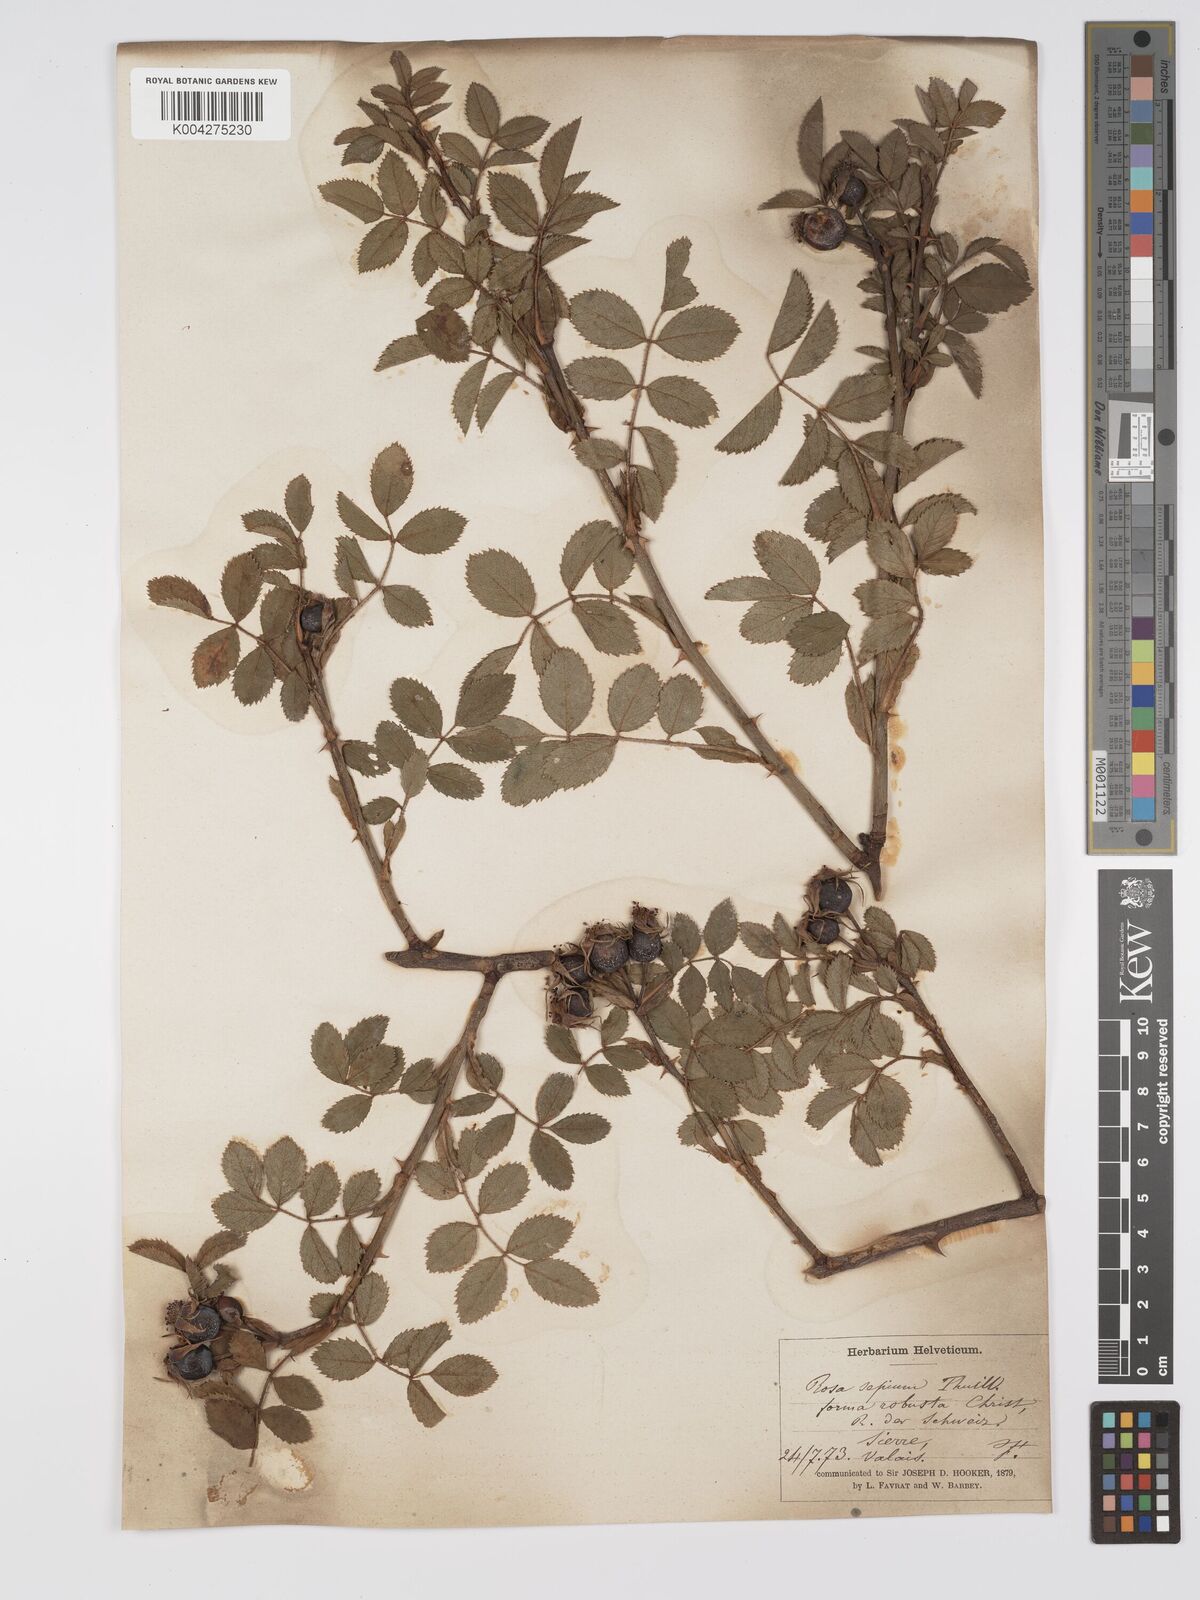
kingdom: Plantae
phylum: Tracheophyta
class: Magnoliopsida
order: Rosales
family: Rosaceae
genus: Rosa
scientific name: Rosa
